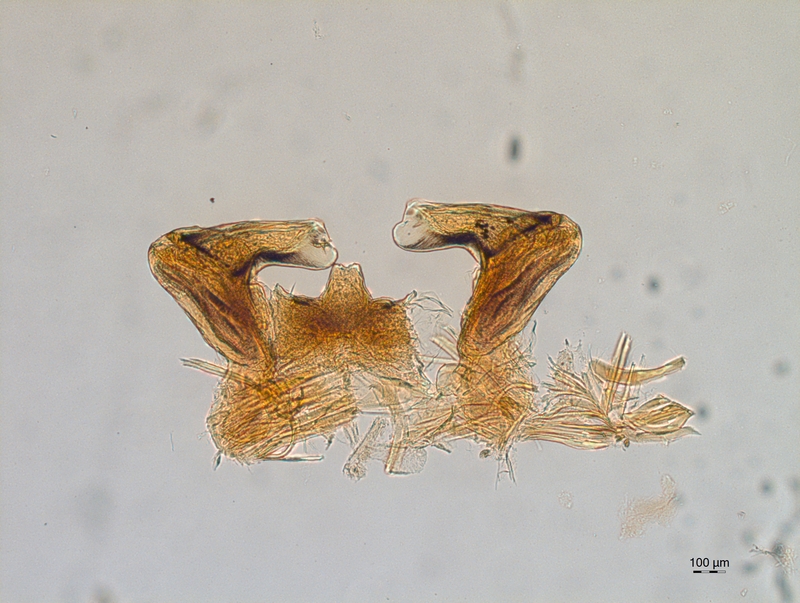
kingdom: Animalia
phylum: Arthropoda
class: Diplopoda
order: Chordeumatida
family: Attemsiidae
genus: Attemsia
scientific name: Attemsia dolinensis
